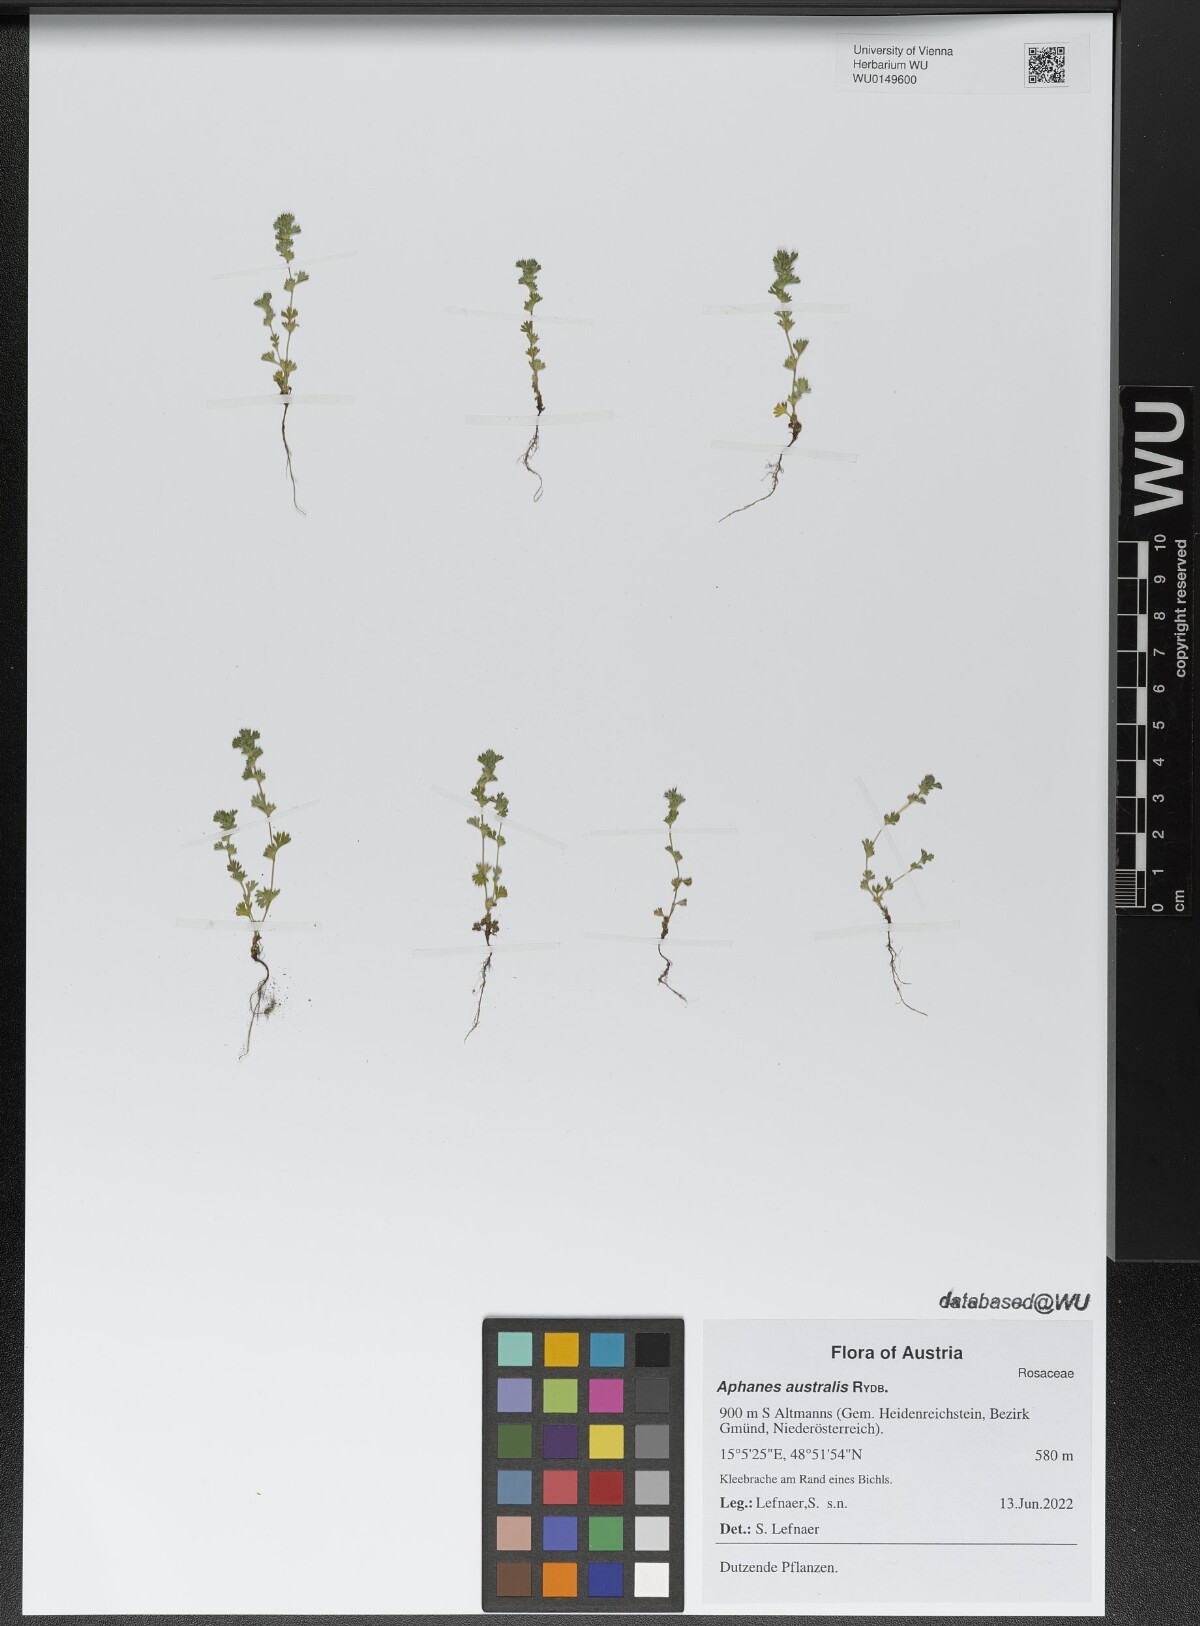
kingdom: Plantae
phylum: Tracheophyta
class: Magnoliopsida
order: Rosales
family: Rosaceae
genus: Aphanes
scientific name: Aphanes australis
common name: Slender parsley-piert
